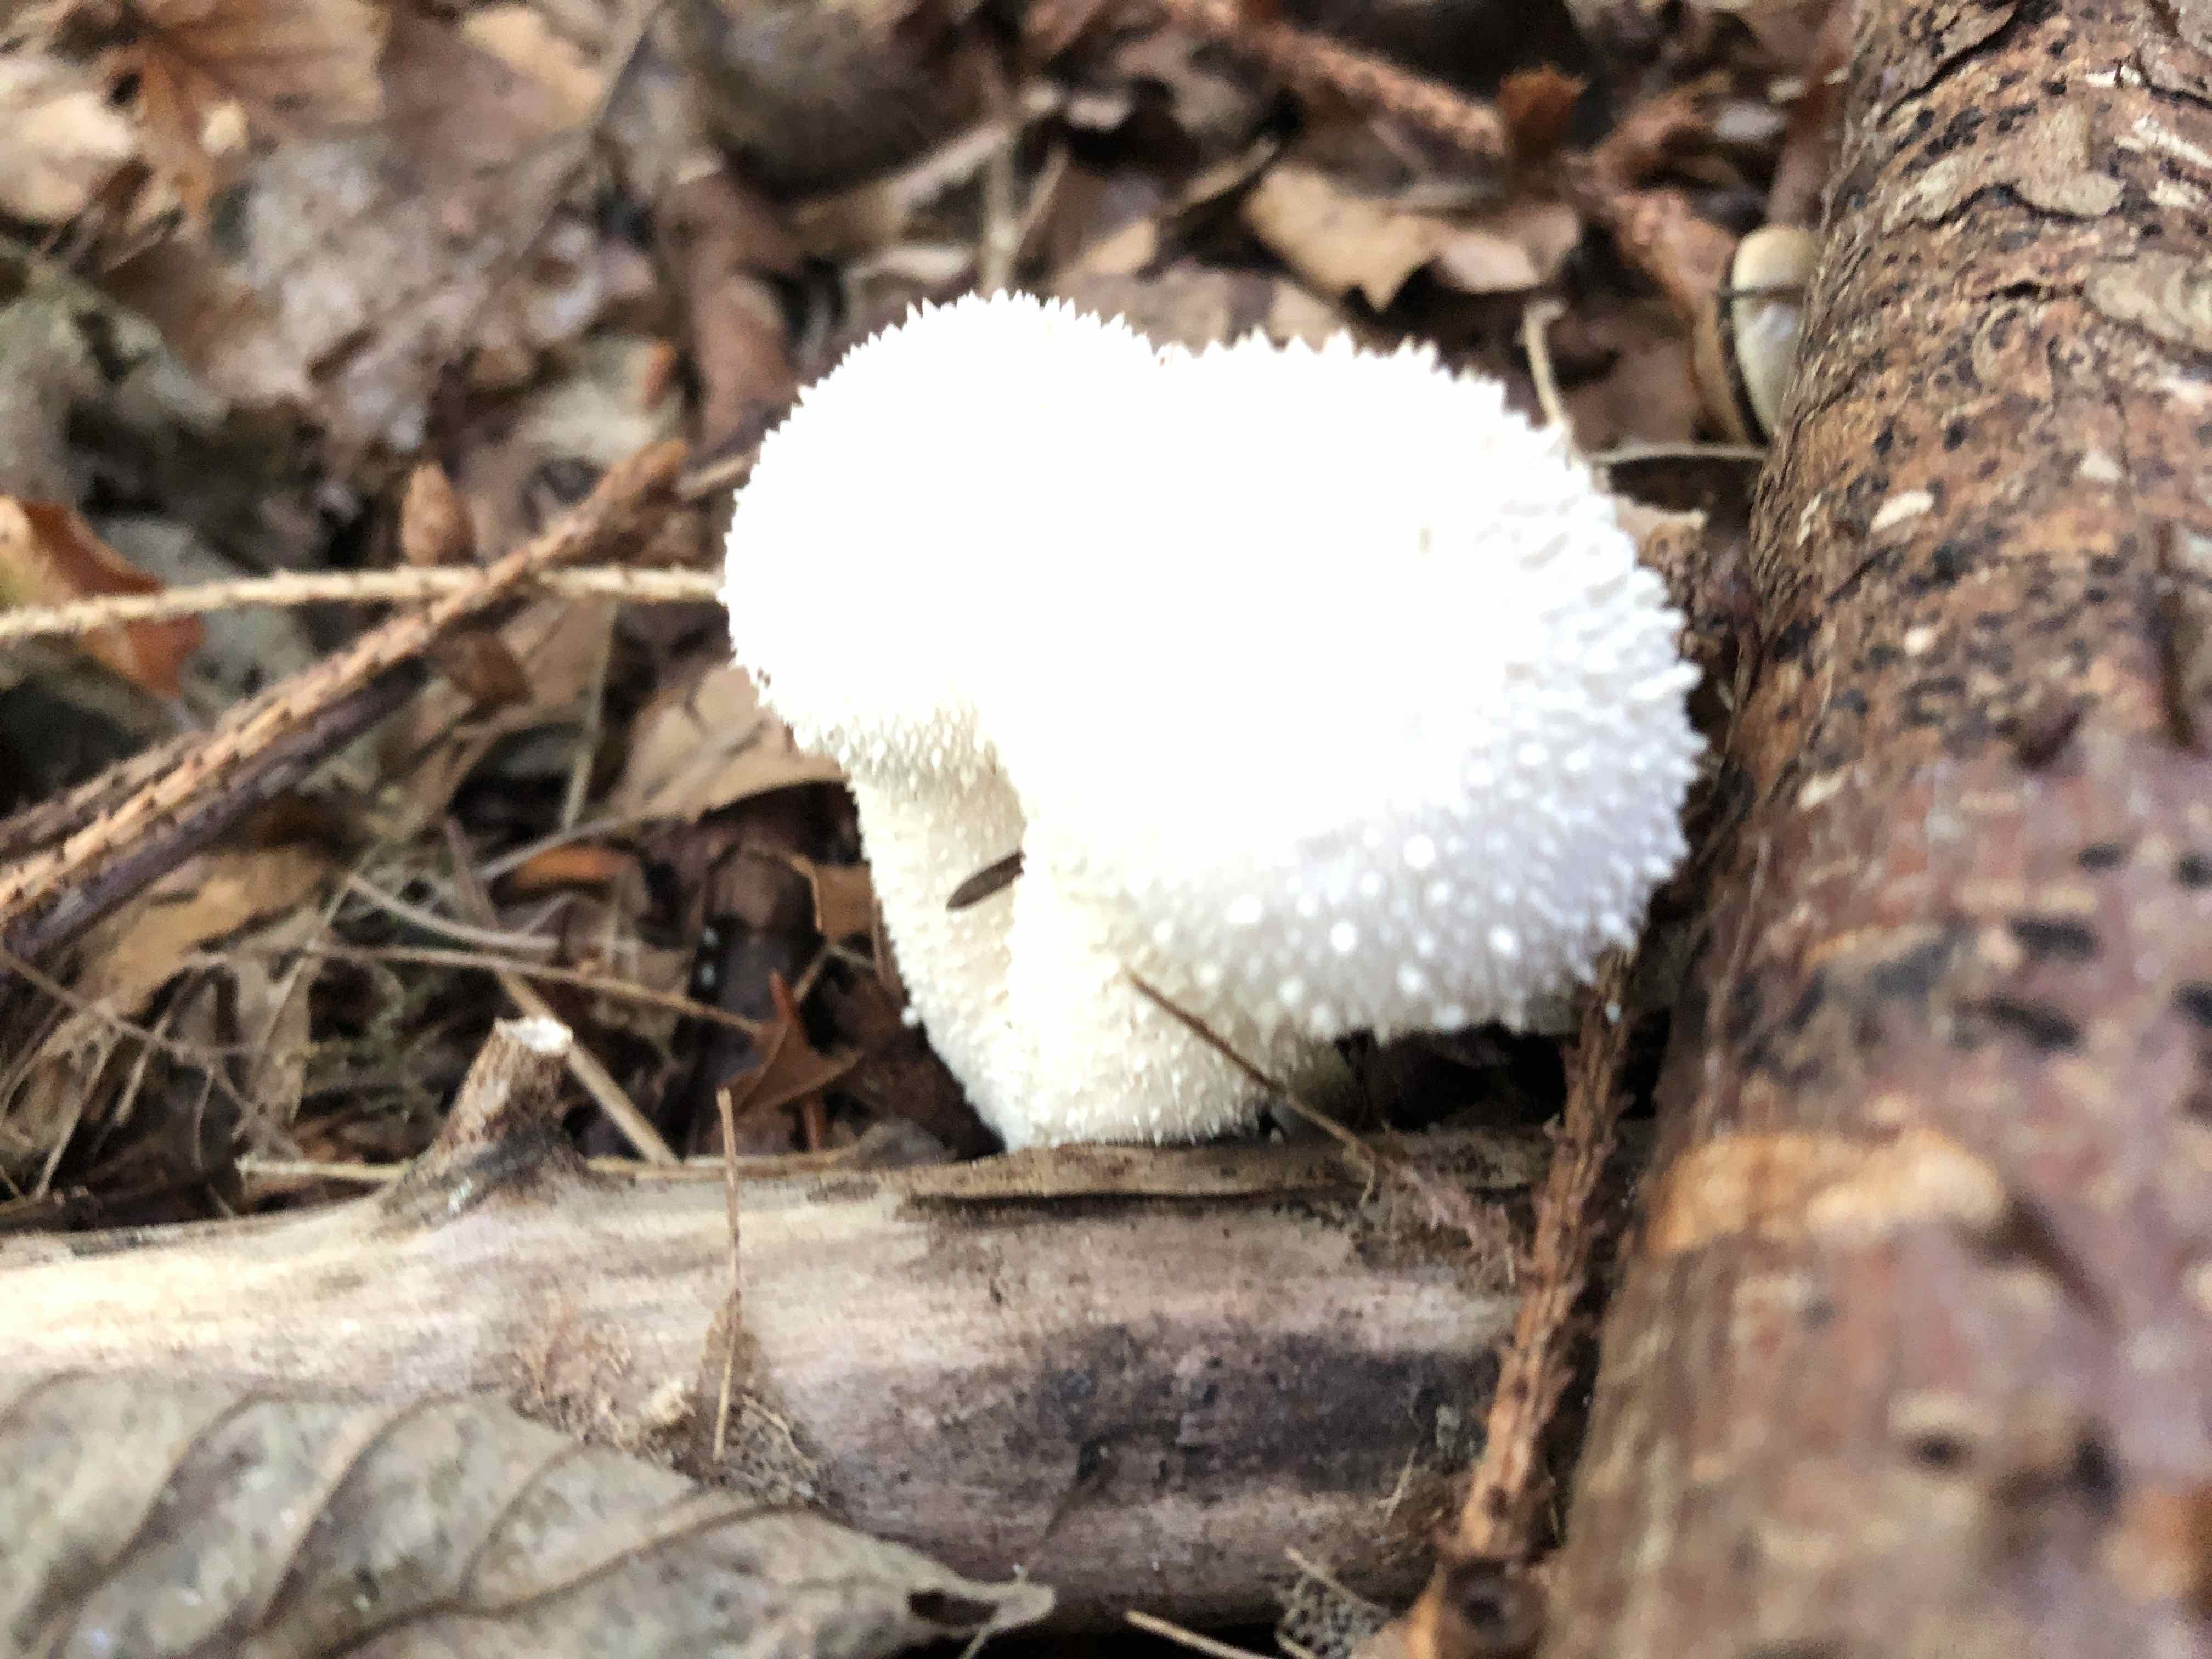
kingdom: Fungi
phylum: Basidiomycota
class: Agaricomycetes
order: Agaricales
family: Lycoperdaceae
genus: Lycoperdon
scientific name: Lycoperdon perlatum
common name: krystal-støvbold
